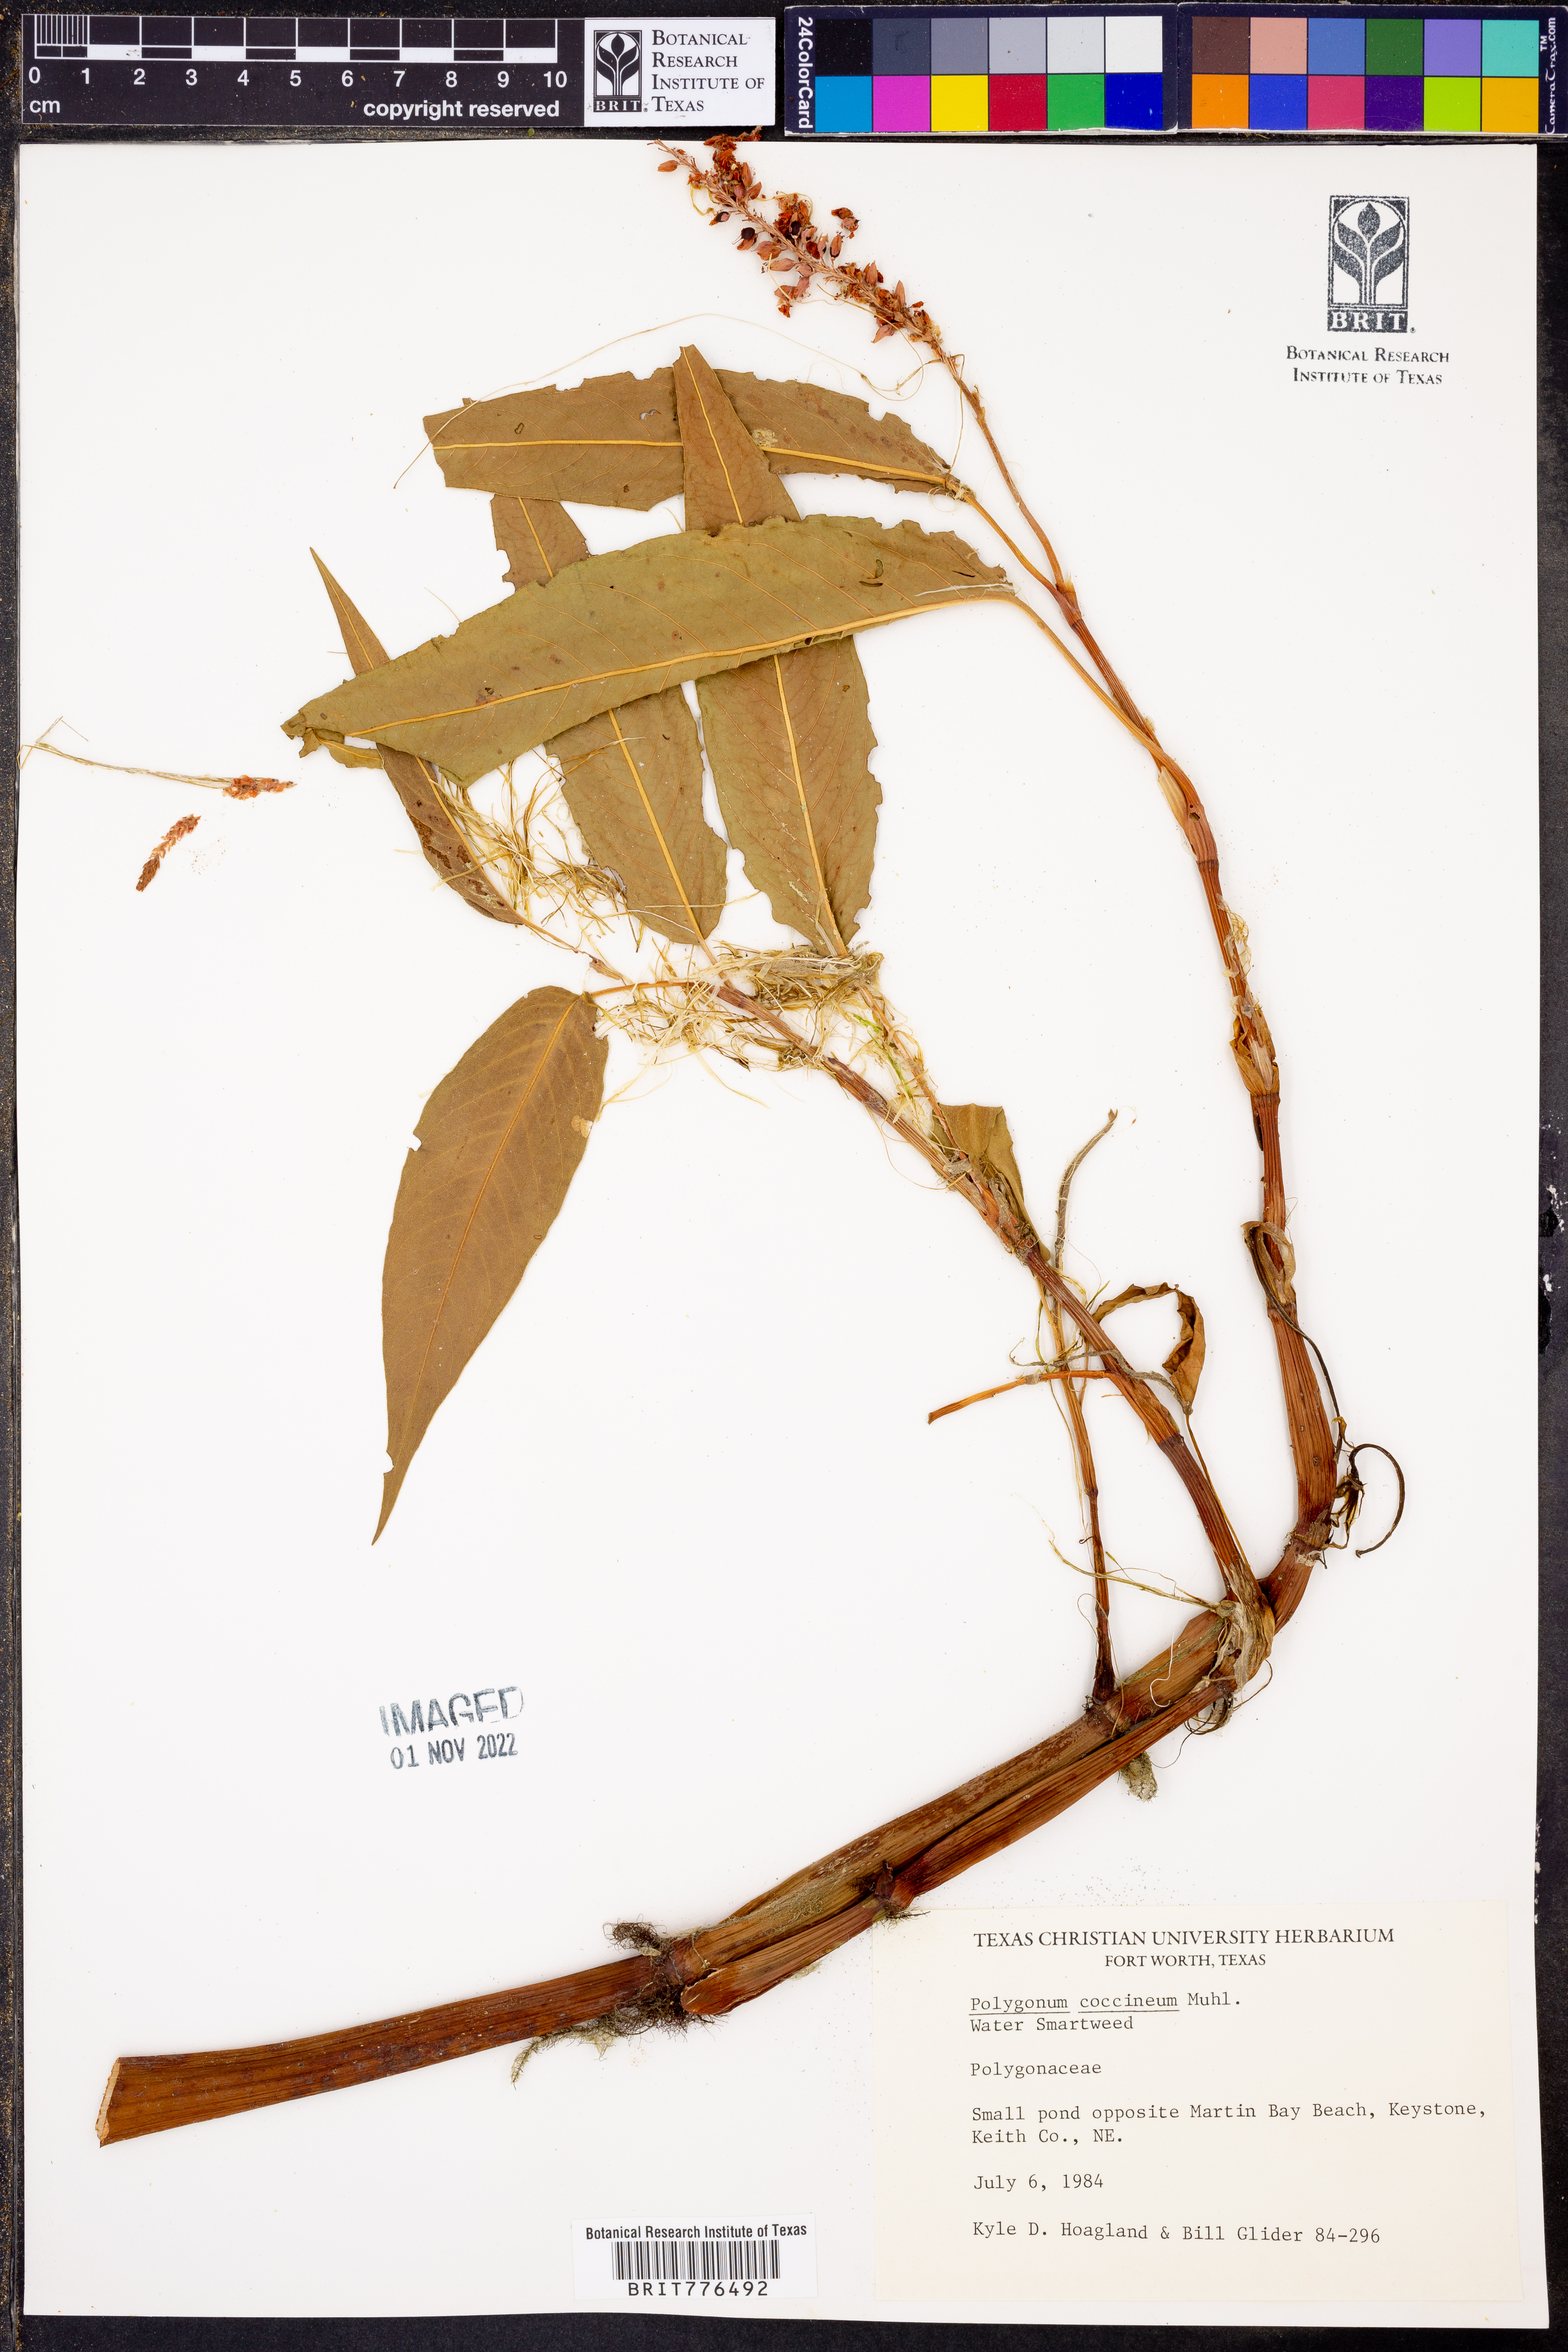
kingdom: Plantae
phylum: Tracheophyta
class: Magnoliopsida
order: Caryophyllales
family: Polygonaceae
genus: Persicaria
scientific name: Persicaria amphibia
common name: Amphibious bistort
